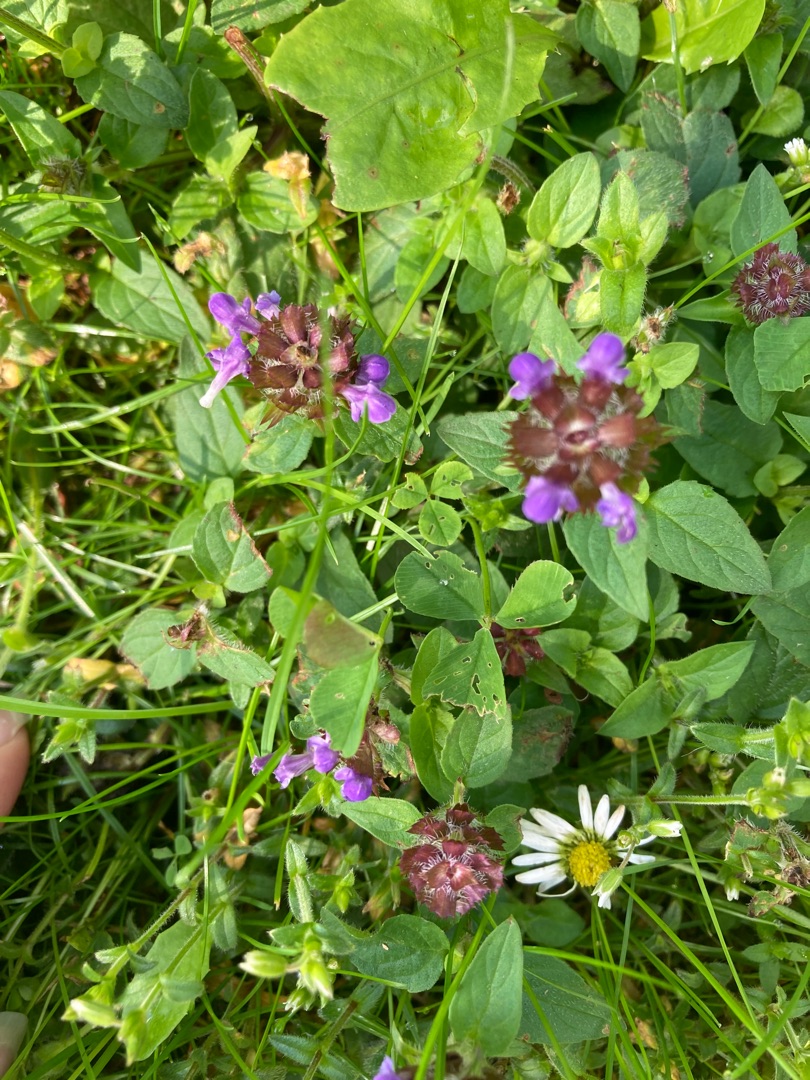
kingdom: Plantae
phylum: Tracheophyta
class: Magnoliopsida
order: Lamiales
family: Lamiaceae
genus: Prunella
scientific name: Prunella vulgaris
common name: Almindelig brunelle
